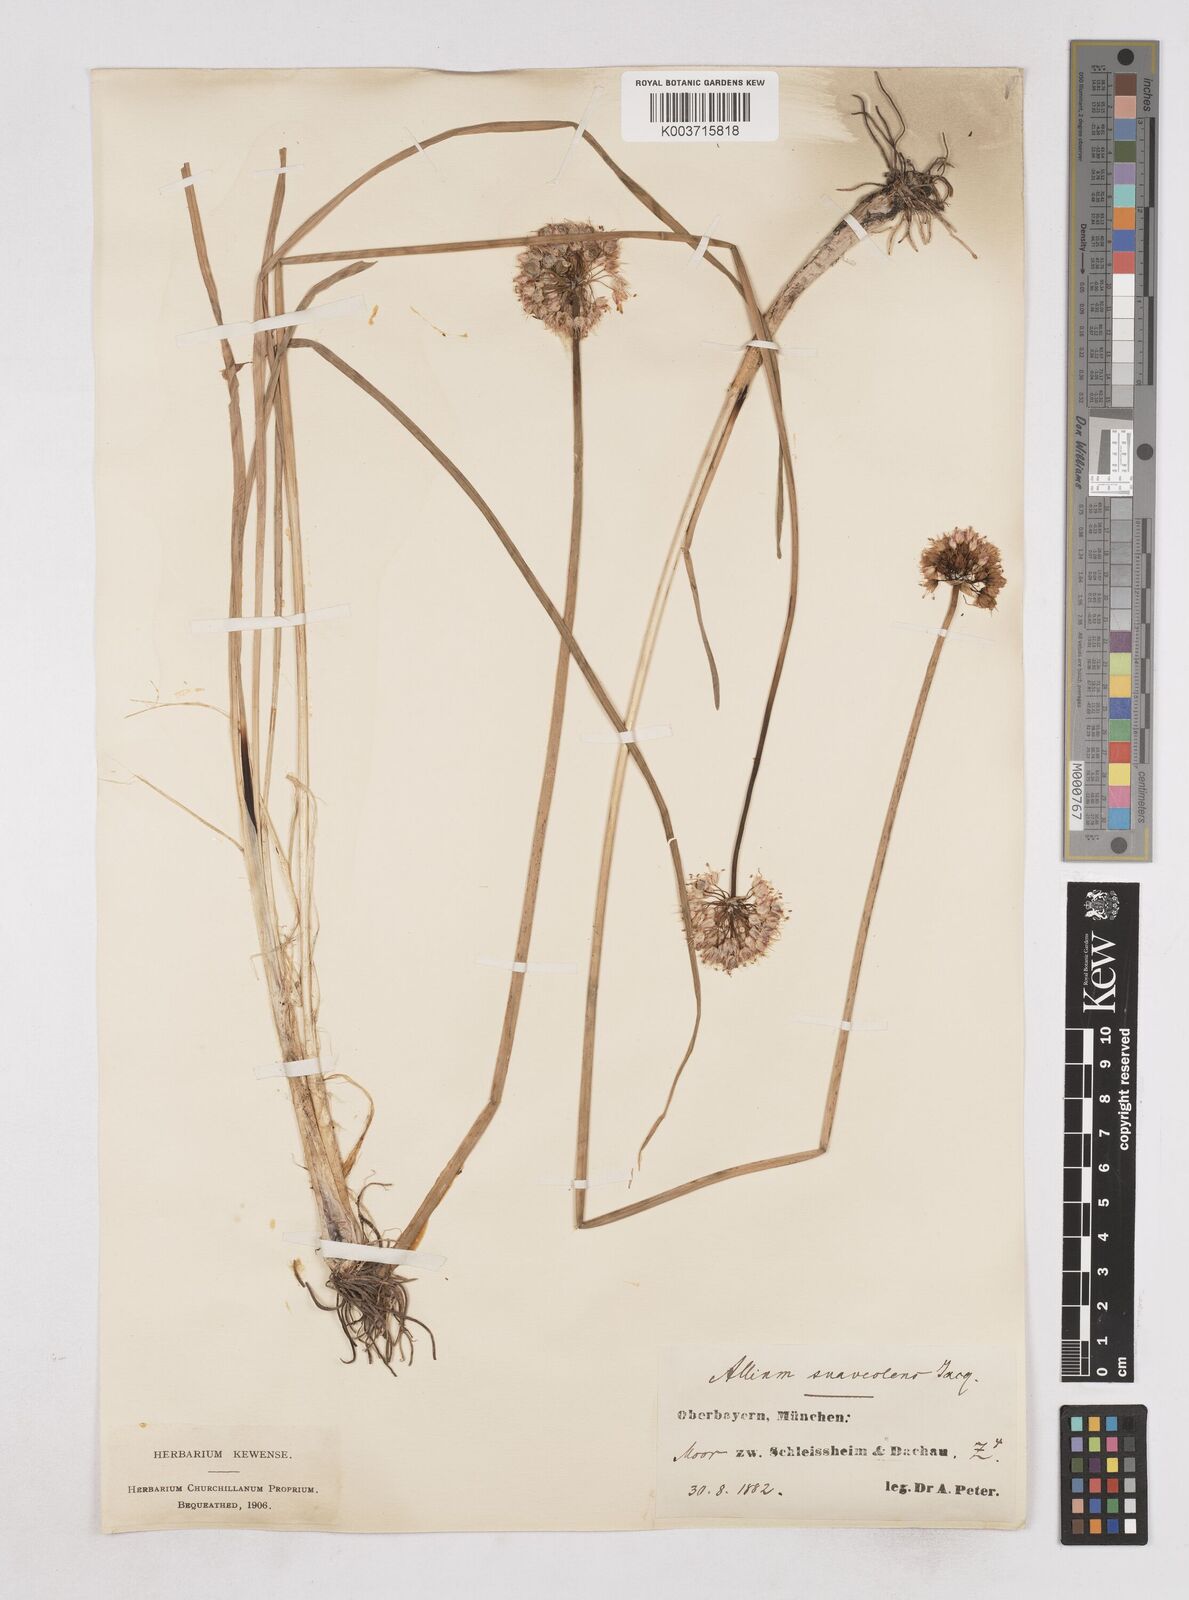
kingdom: Plantae
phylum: Tracheophyta
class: Liliopsida
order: Asparagales
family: Amaryllidaceae
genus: Allium
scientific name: Allium suaveolens
